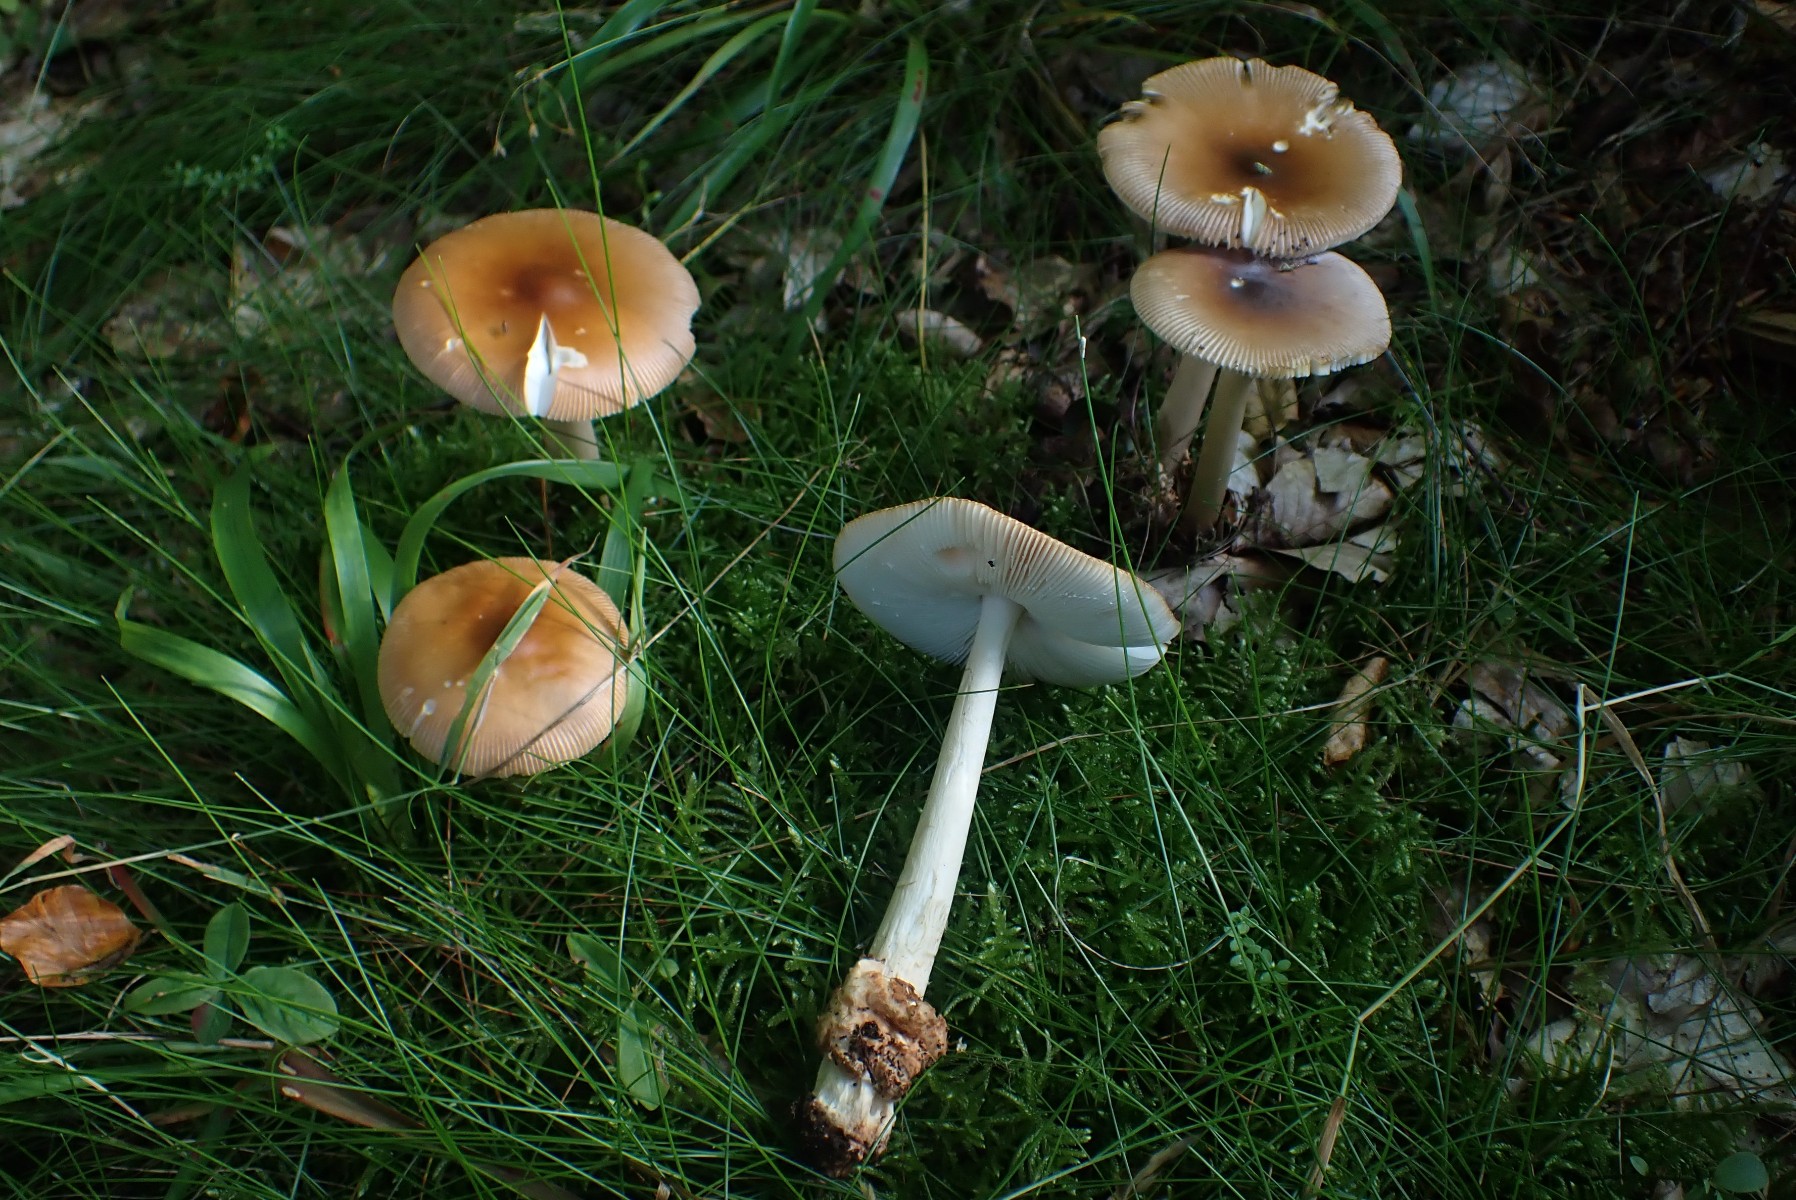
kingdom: Fungi
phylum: Basidiomycota
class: Agaricomycetes
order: Agaricales
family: Amanitaceae
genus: Amanita
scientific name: Amanita fulva
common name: brun kam-fluesvamp
